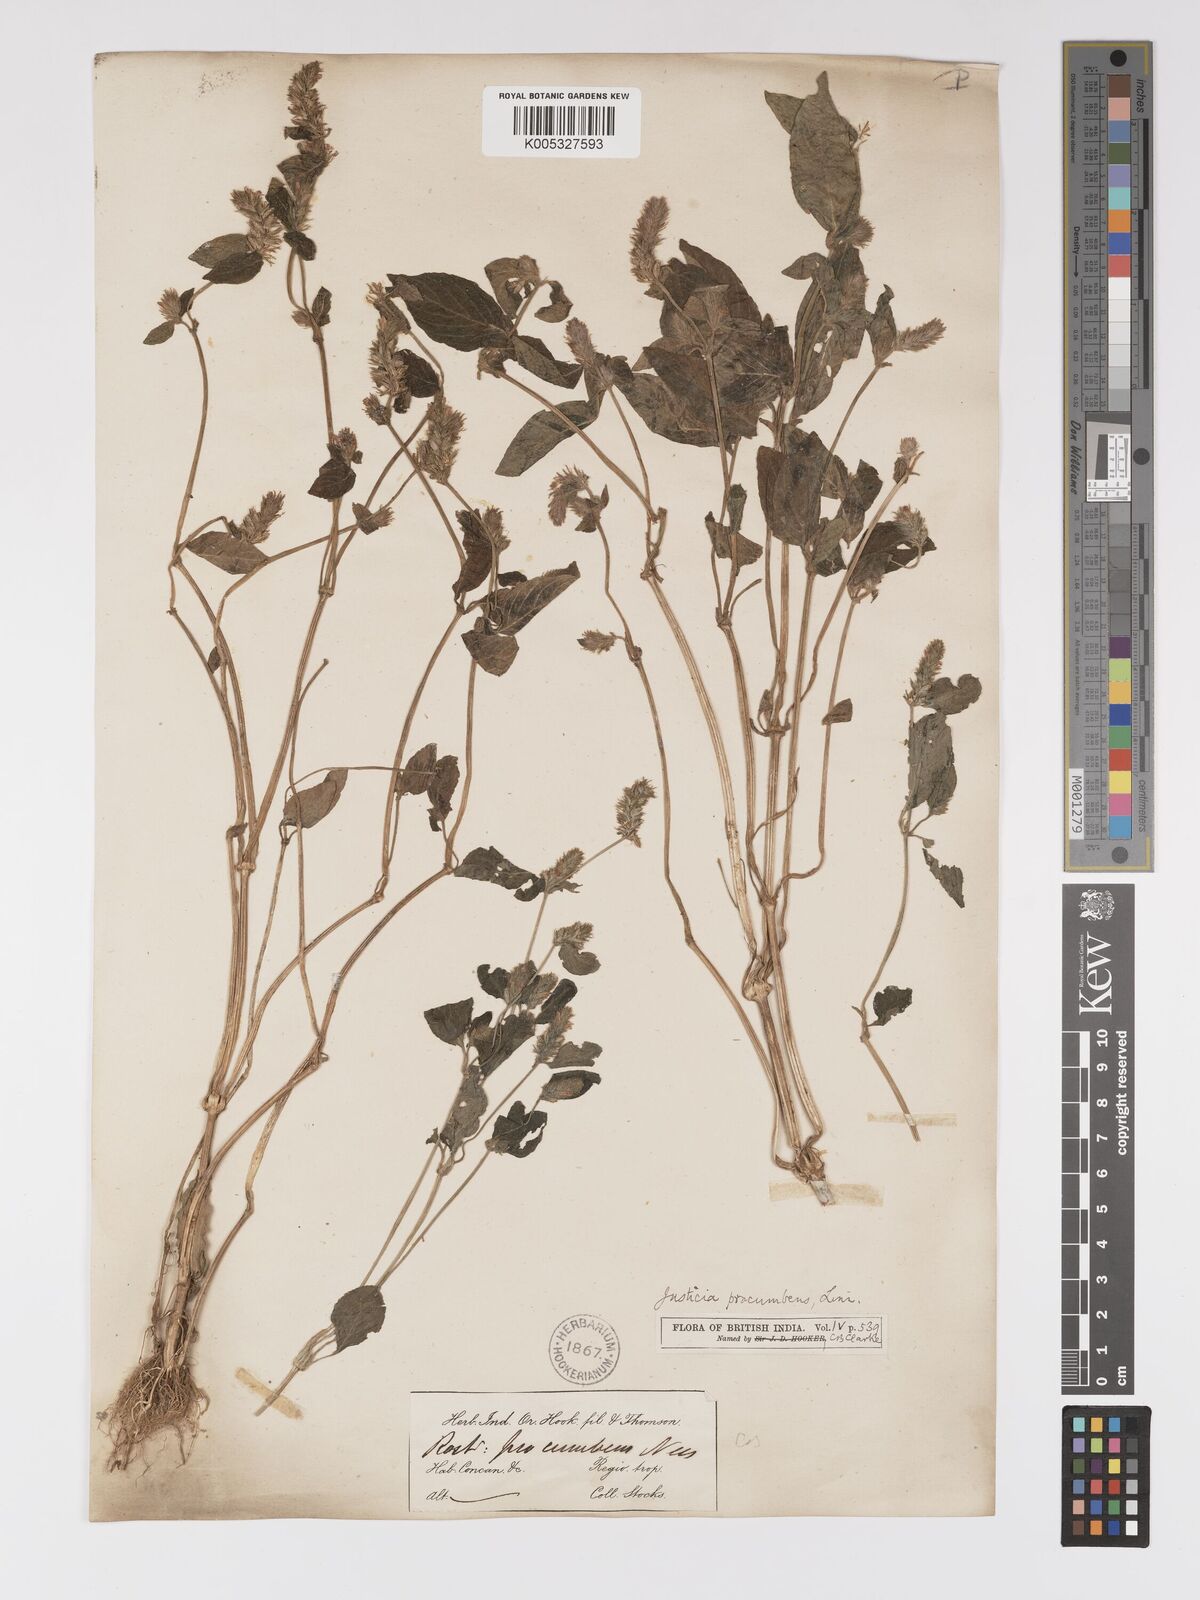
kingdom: Plantae
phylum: Tracheophyta
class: Magnoliopsida
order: Lamiales
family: Acanthaceae
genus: Rostellularia
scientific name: Rostellularia procumbens
